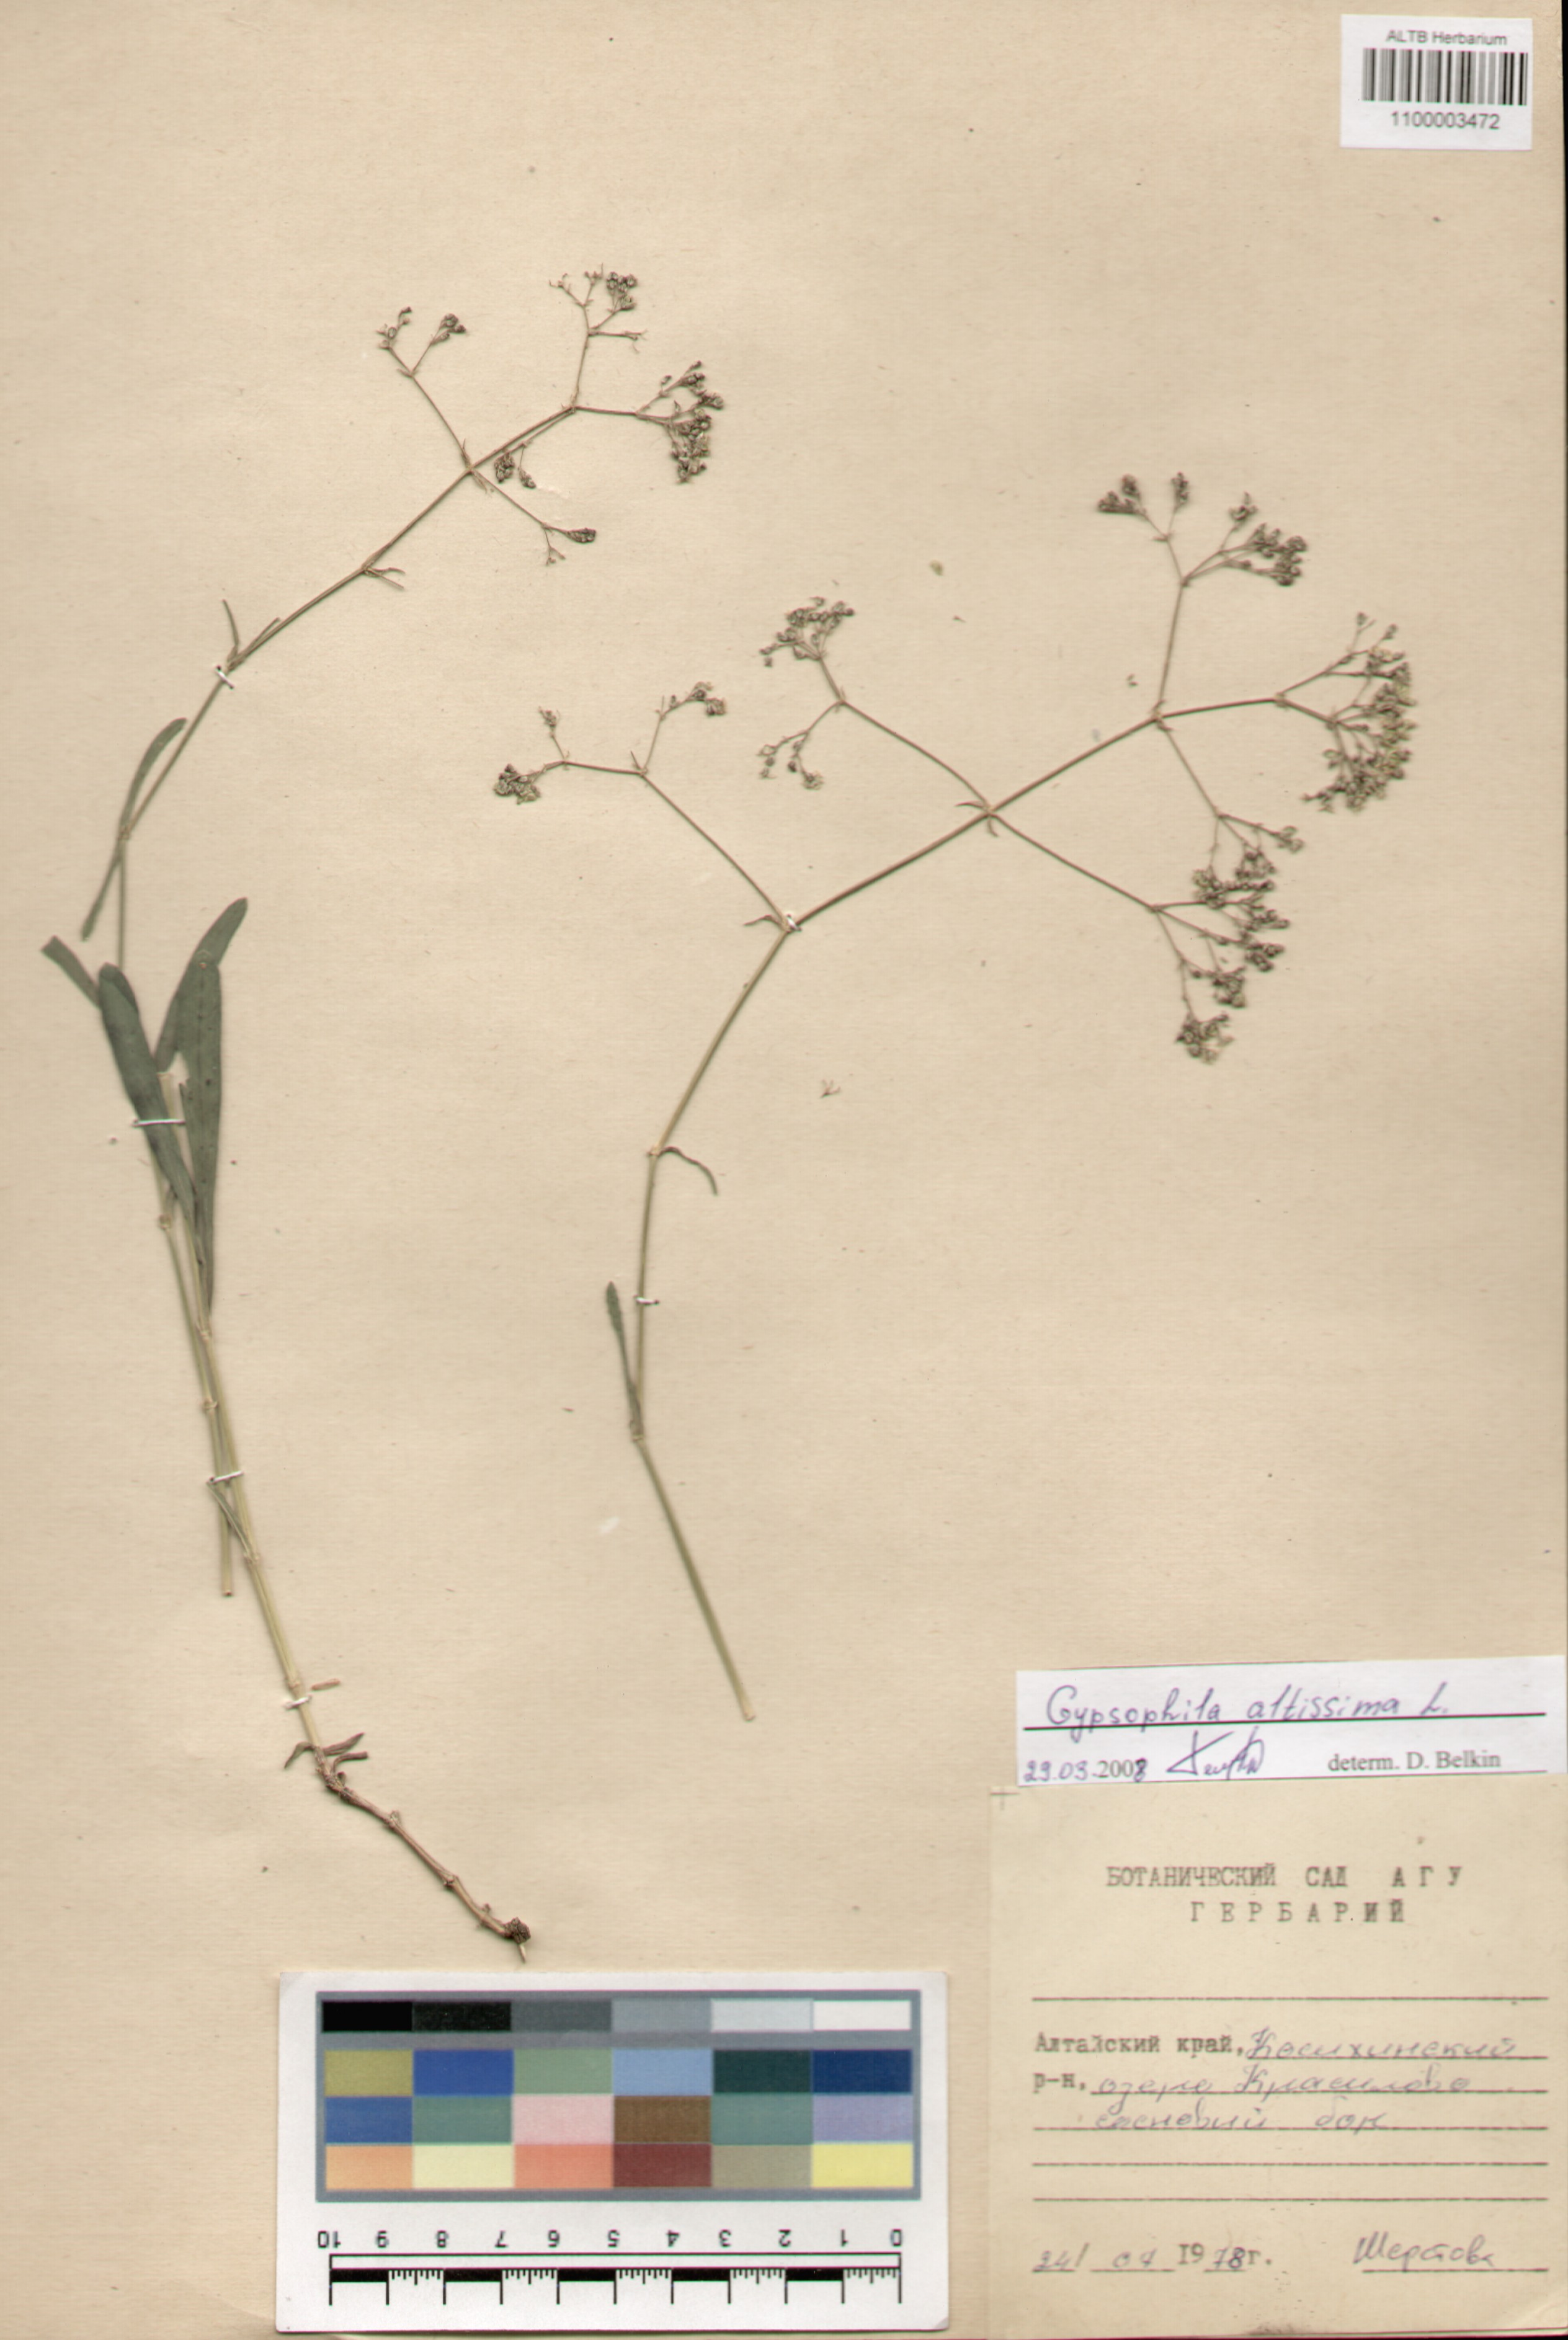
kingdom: Plantae
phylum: Tracheophyta
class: Magnoliopsida
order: Caryophyllales
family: Caryophyllaceae
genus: Gypsophila
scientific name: Gypsophila altissima
